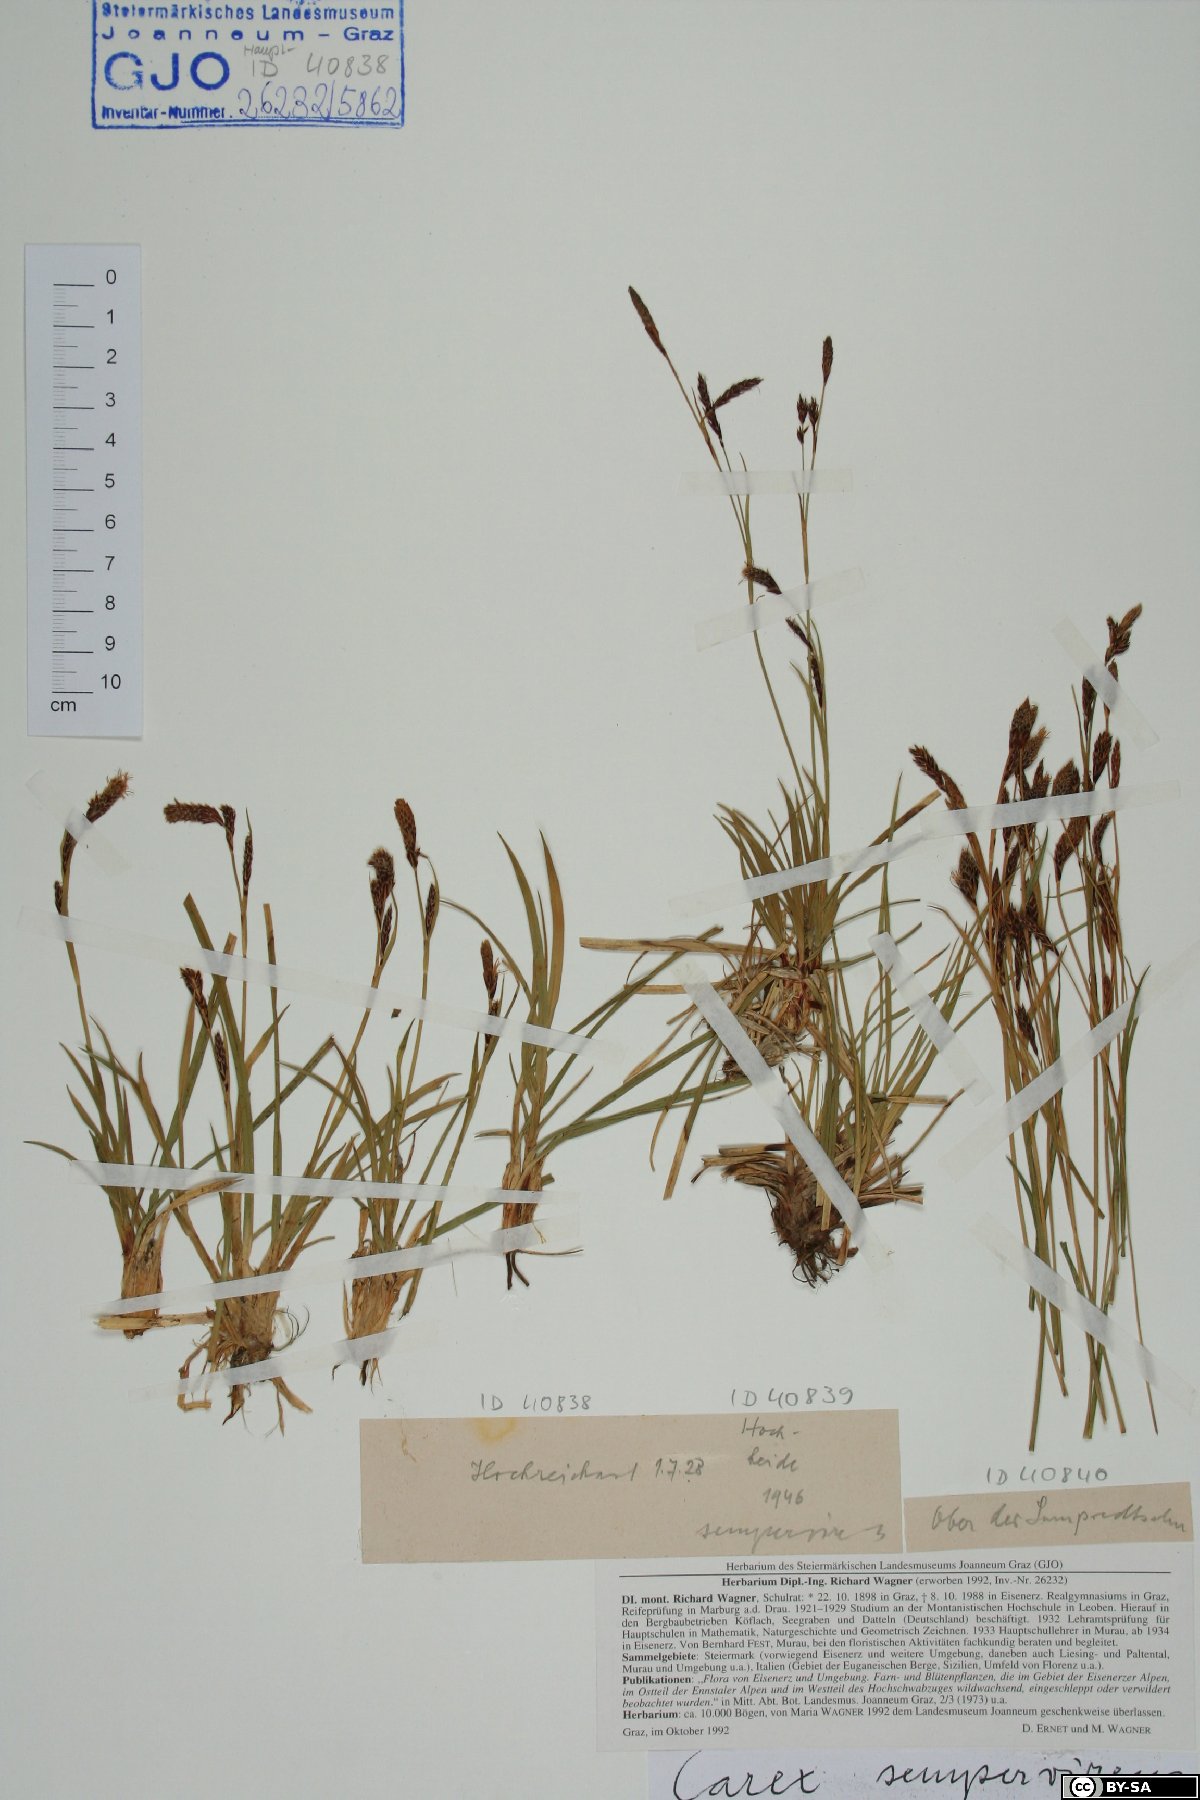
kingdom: Plantae
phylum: Tracheophyta
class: Liliopsida
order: Poales
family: Cyperaceae
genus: Carex
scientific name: Carex sempervirens
